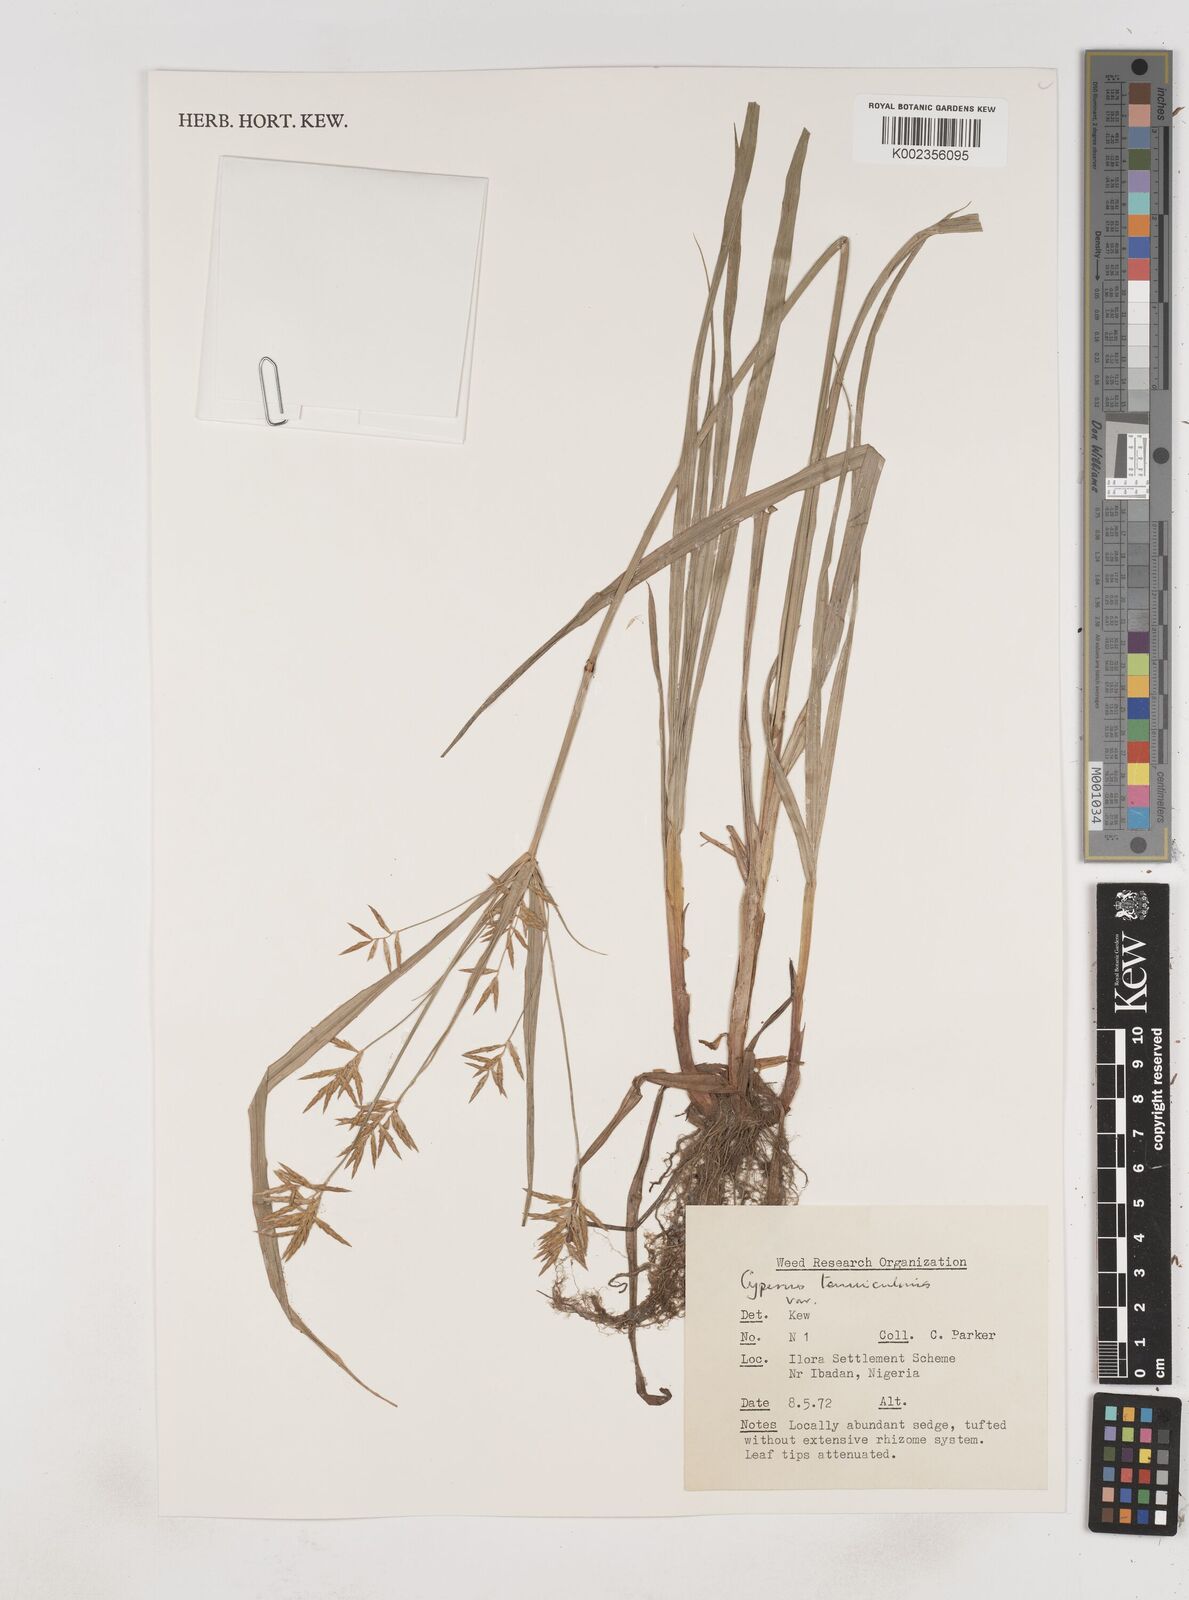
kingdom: Plantae
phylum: Tracheophyta
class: Liliopsida
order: Poales
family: Cyperaceae
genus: Cyperus
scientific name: Cyperus tenuiculmis
